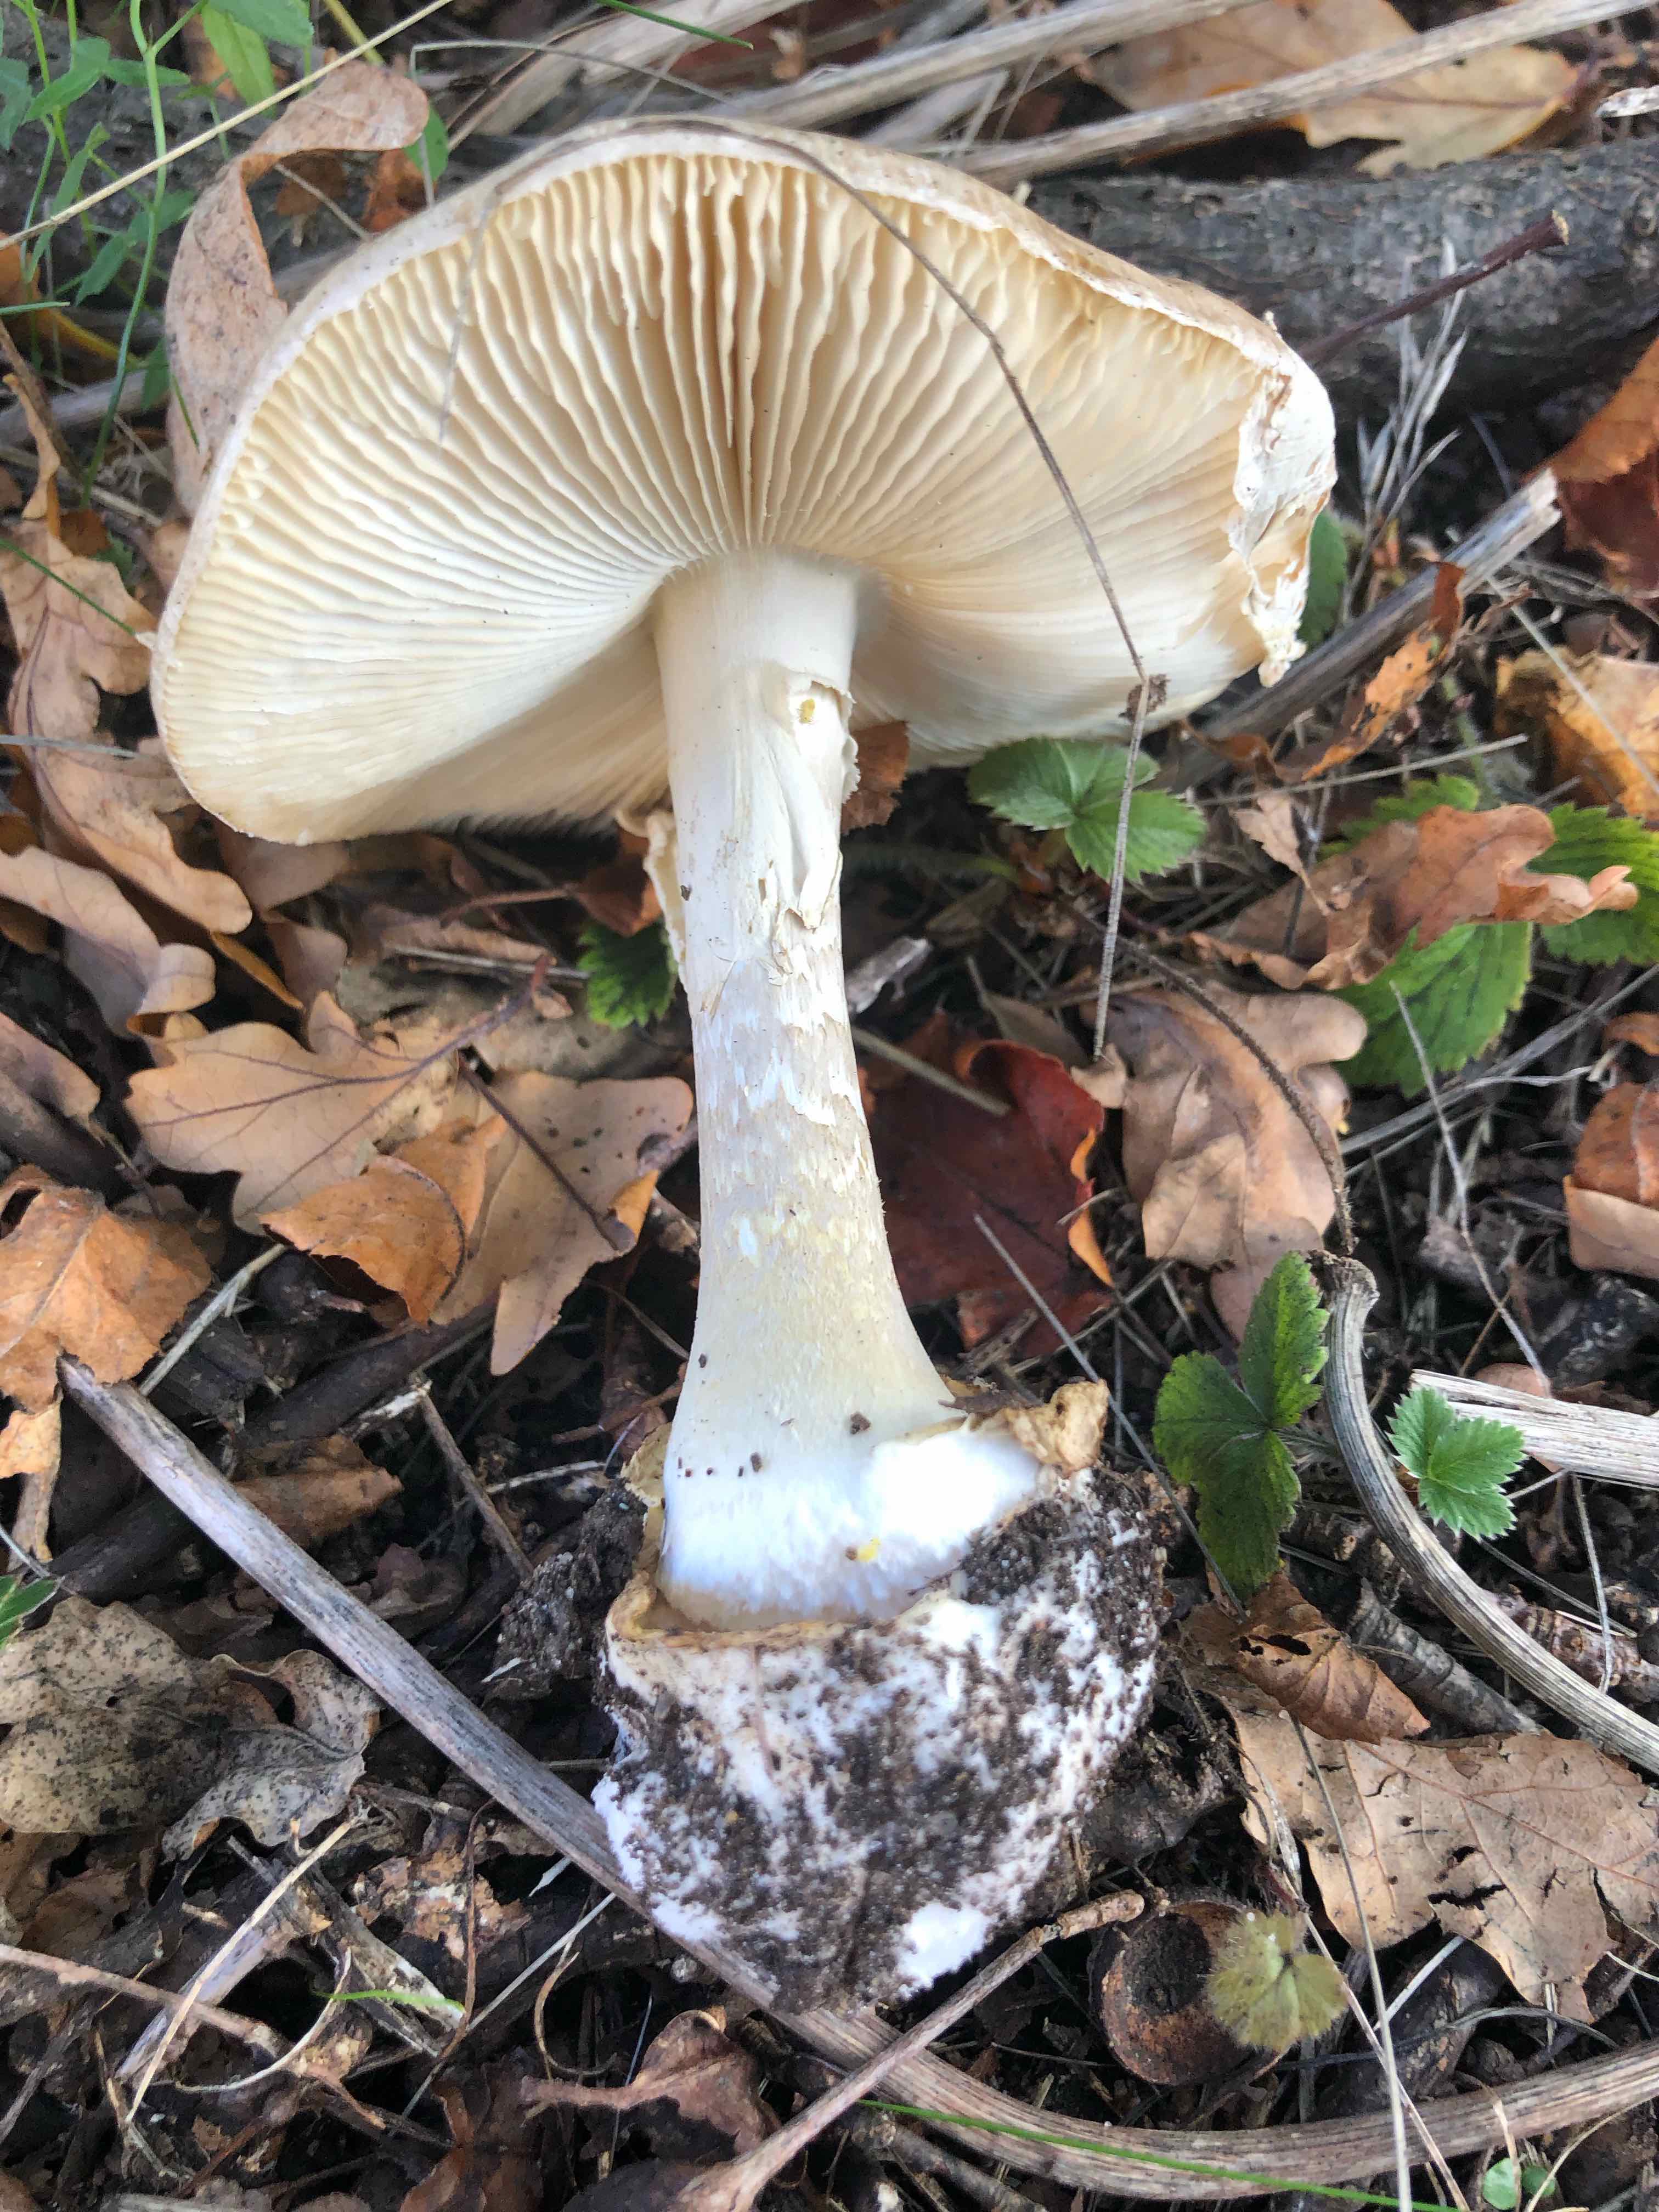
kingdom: Fungi
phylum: Basidiomycota
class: Agaricomycetes
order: Agaricales
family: Amanitaceae
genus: Amanita
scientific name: Amanita phalloides
